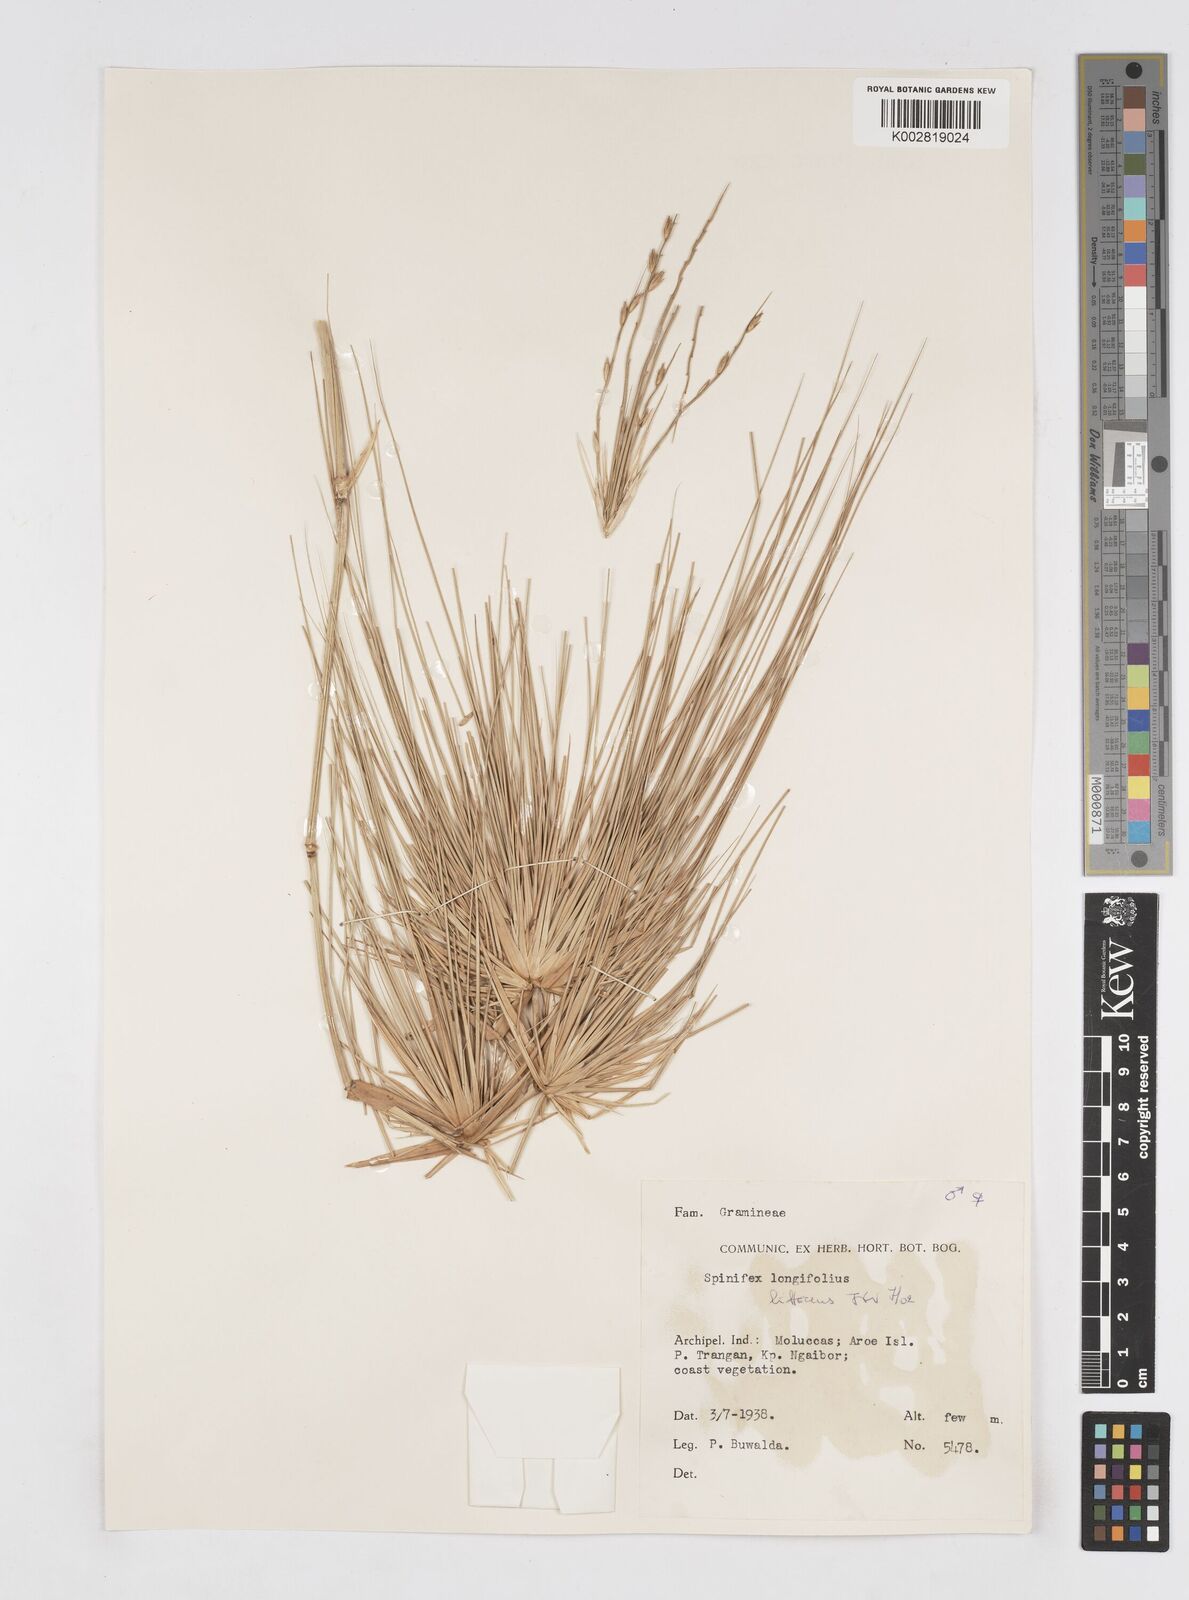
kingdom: Plantae
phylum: Tracheophyta
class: Liliopsida
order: Poales
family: Poaceae
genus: Spinifex
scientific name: Spinifex littoreus
